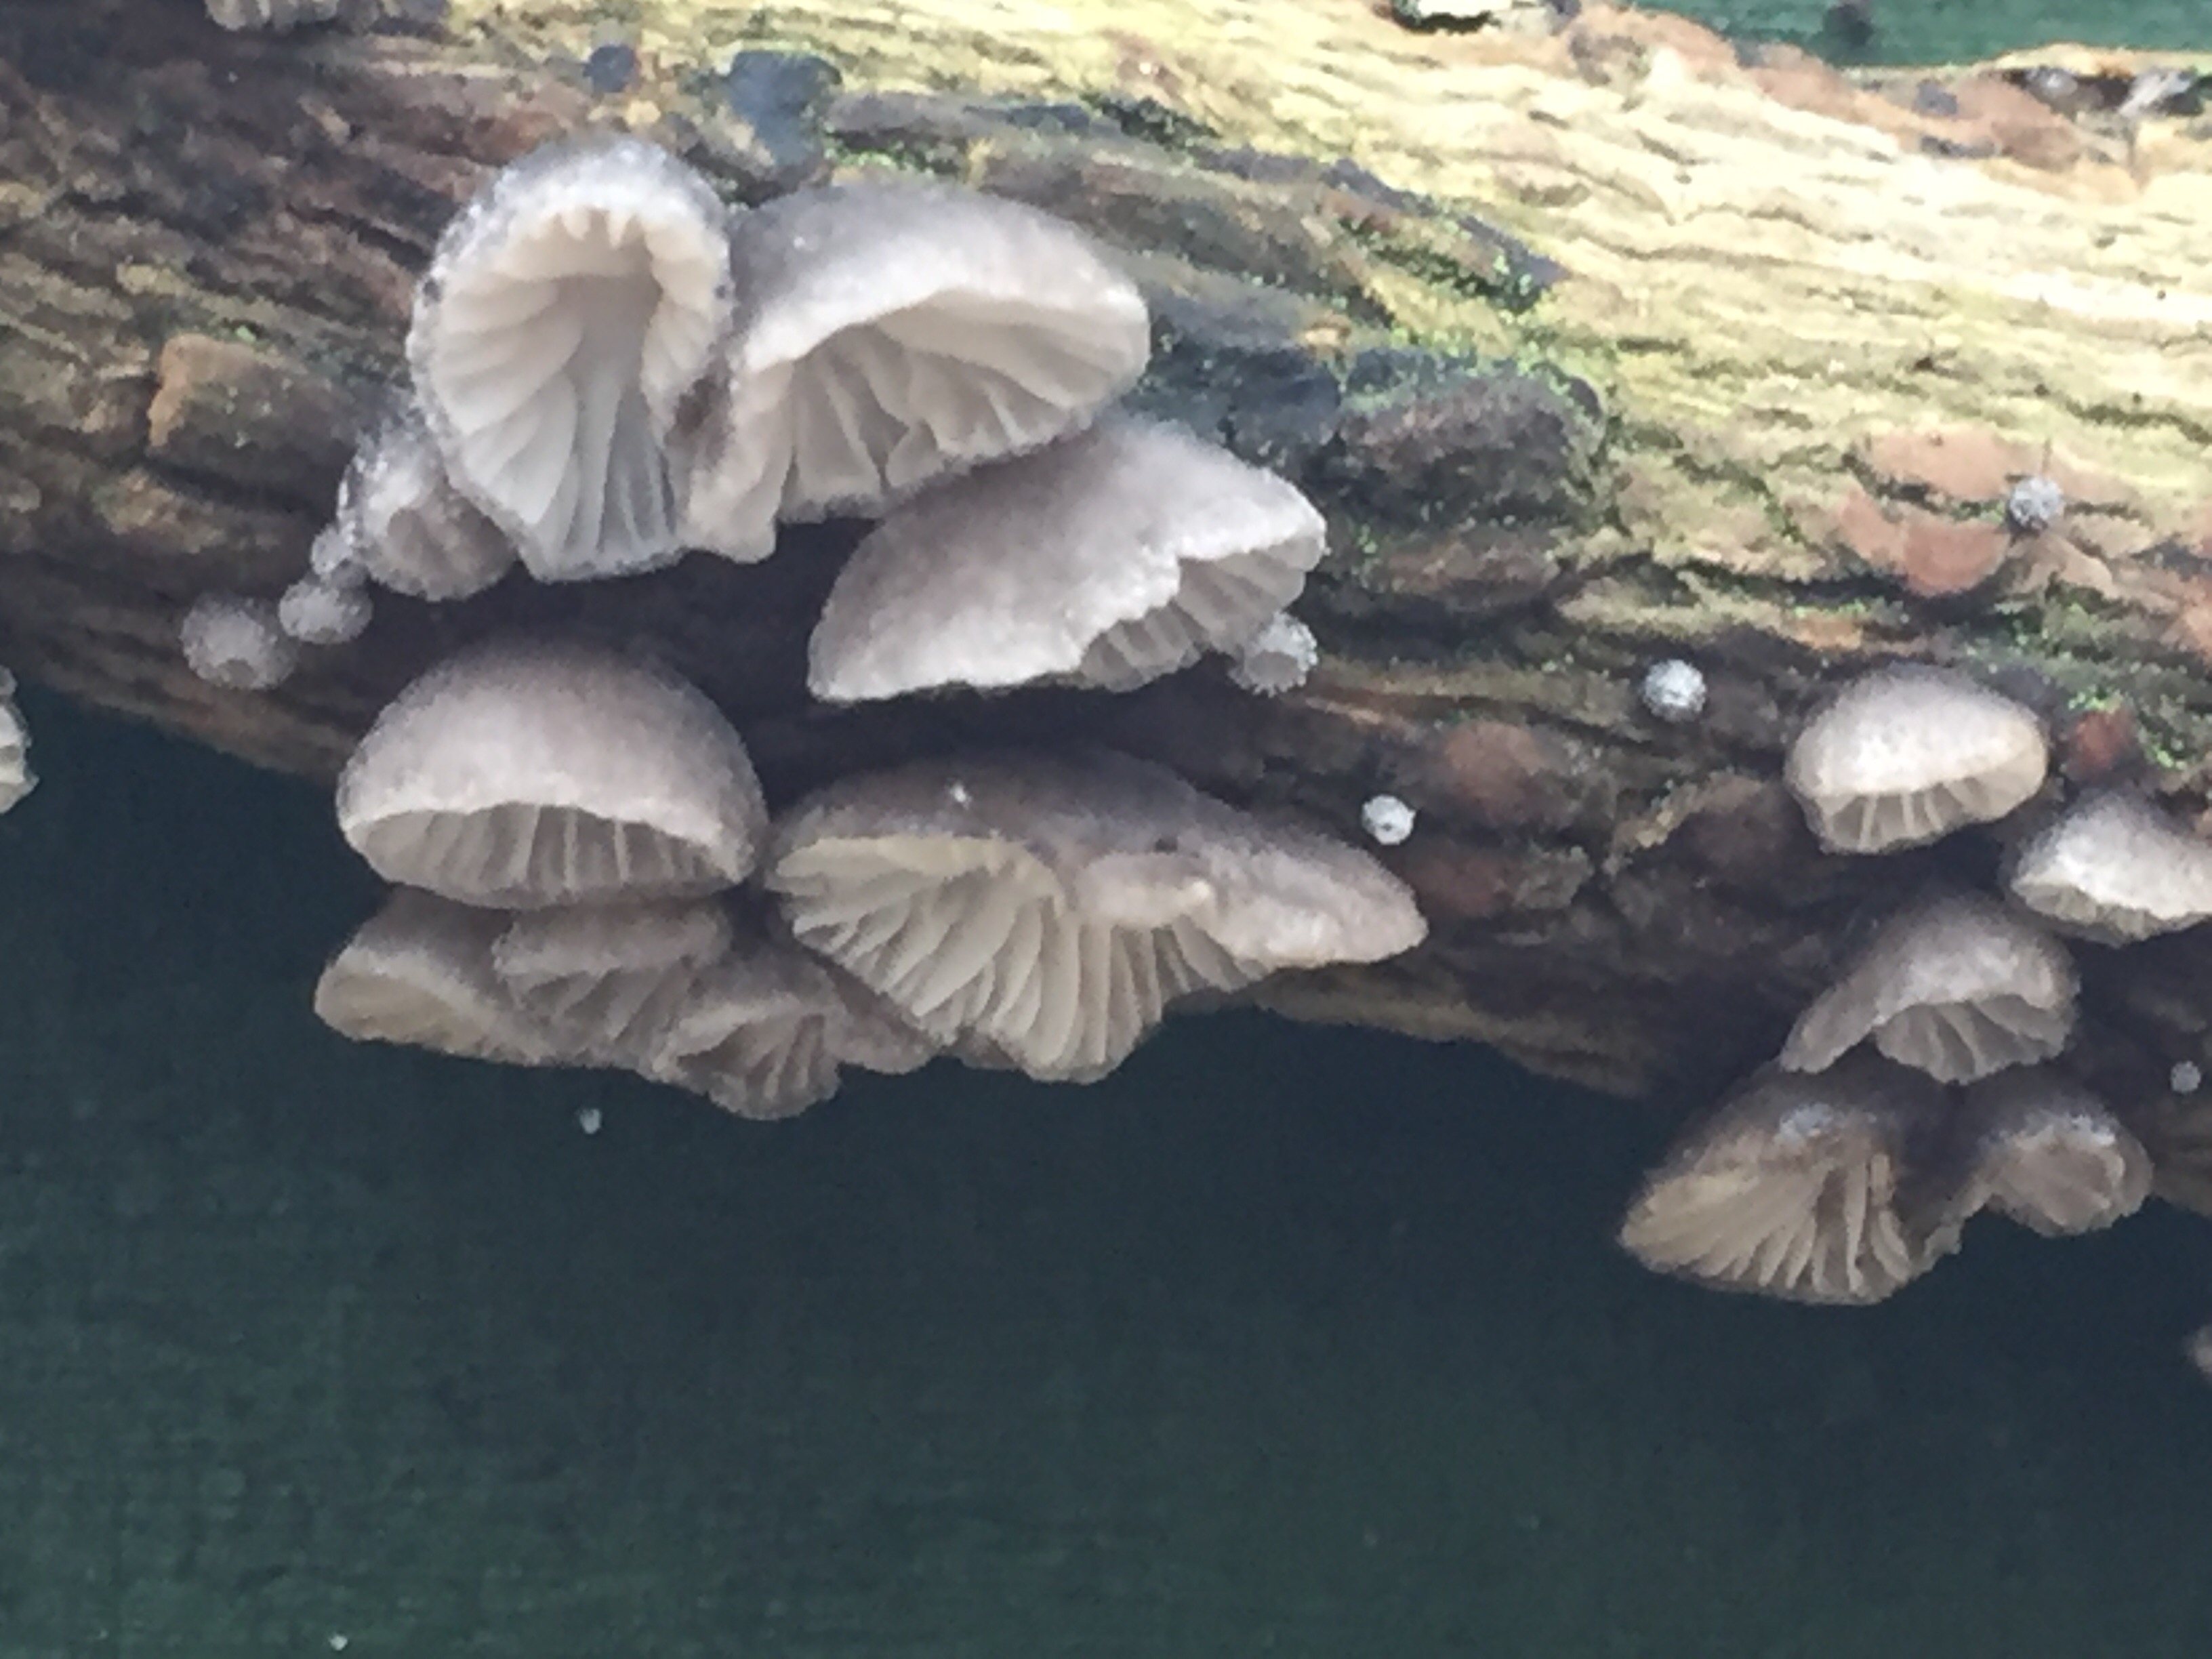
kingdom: Fungi
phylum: Basidiomycota
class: Agaricomycetes
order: Agaricales
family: Pleurotaceae
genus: Hohenbuehelia
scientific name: Hohenbuehelia cyphelliformis
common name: urte-filthat
